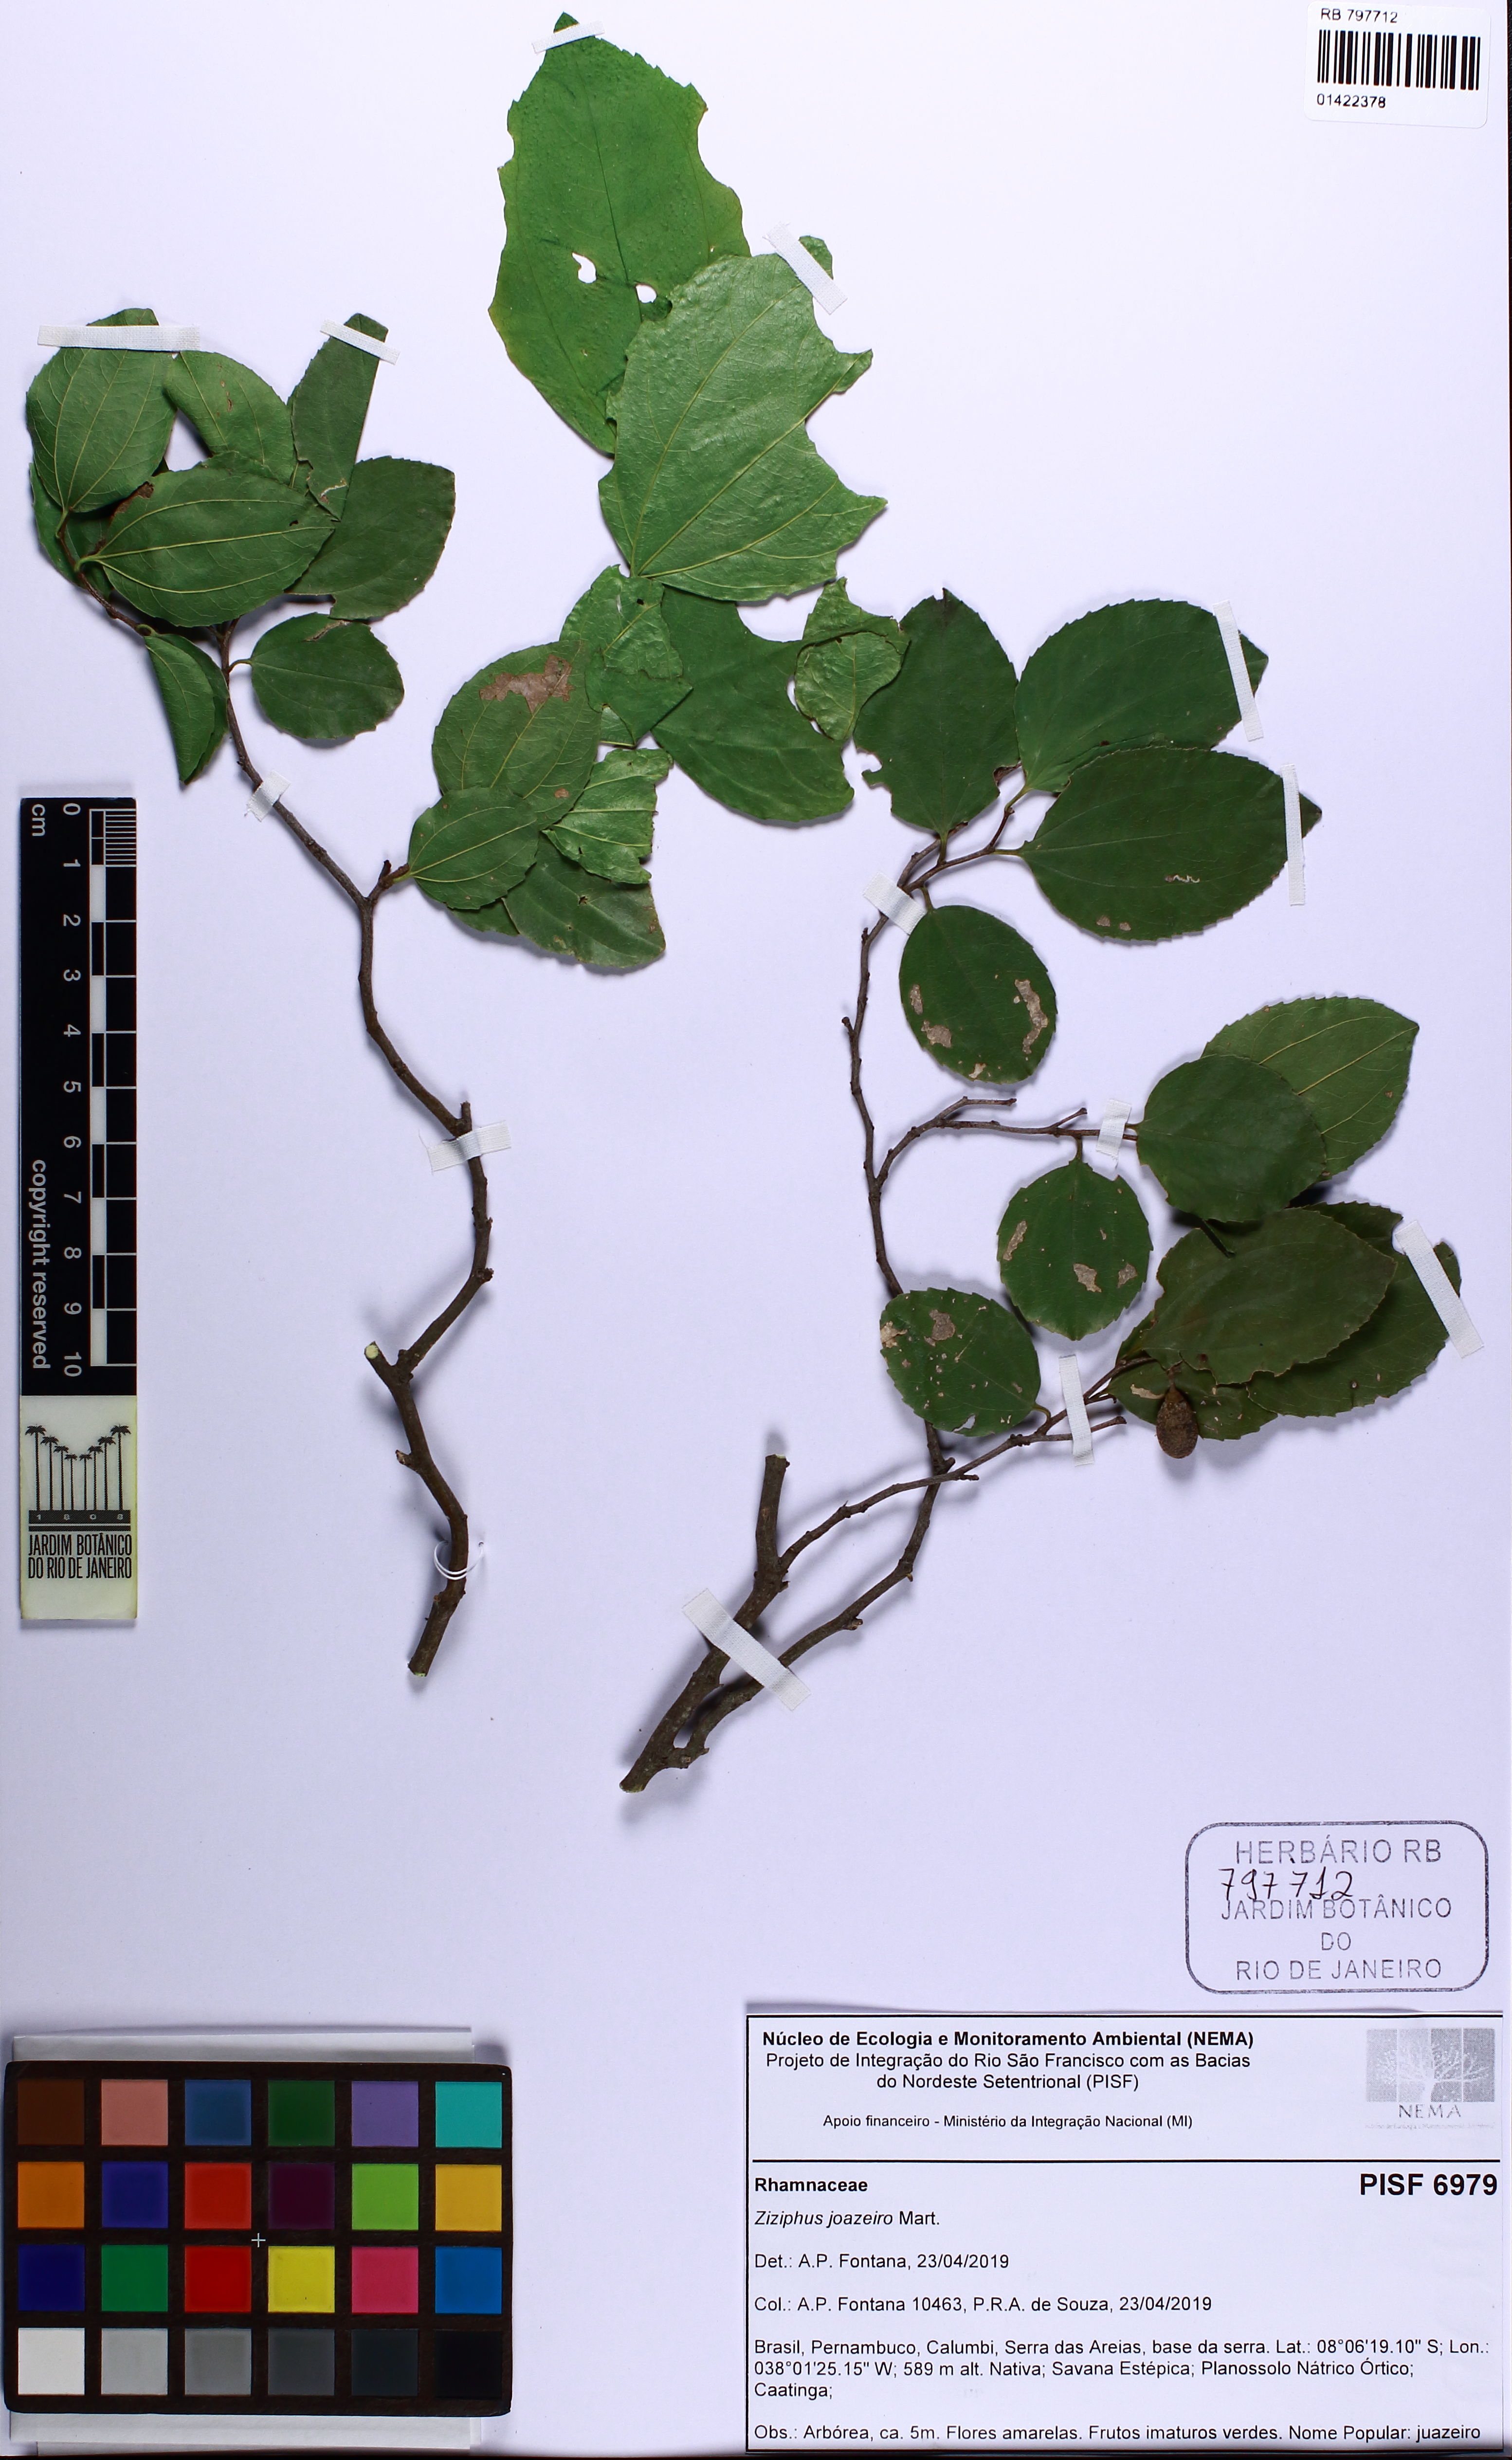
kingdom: Plantae
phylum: Tracheophyta
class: Magnoliopsida
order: Rosales
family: Rhamnaceae
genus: Sarcomphalus
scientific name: Sarcomphalus joazeiro
